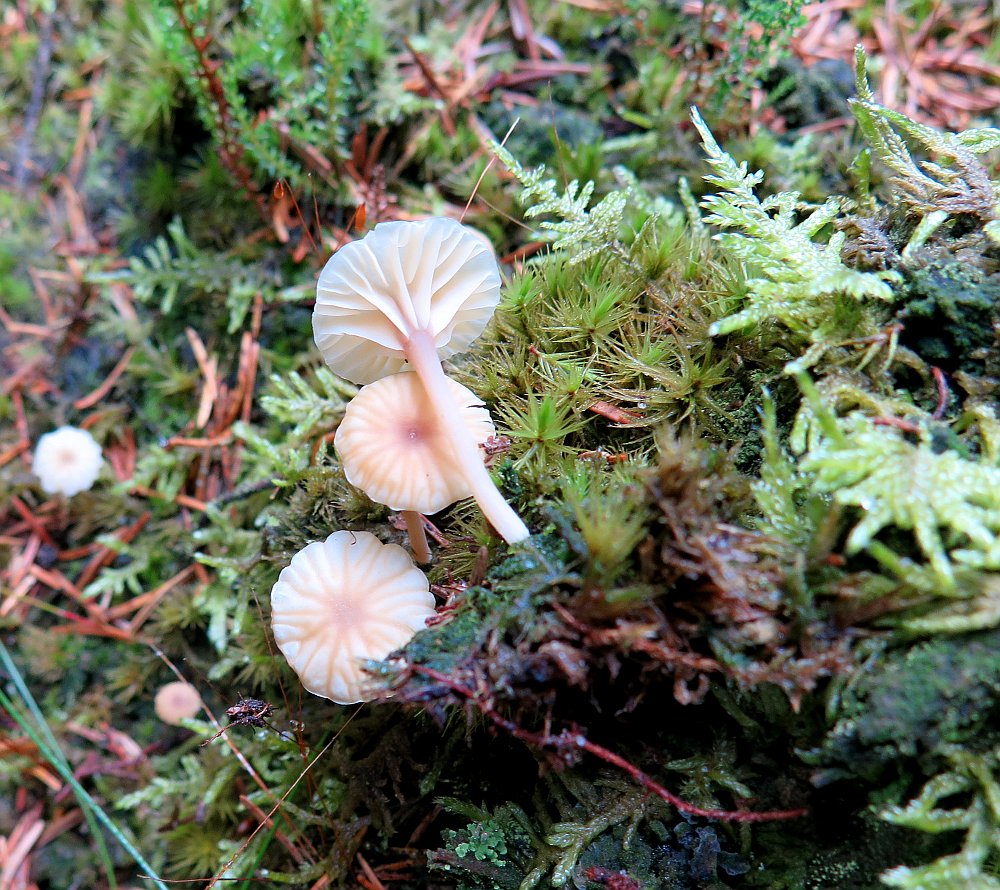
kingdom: Fungi
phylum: Basidiomycota
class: Agaricomycetes
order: Agaricales
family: Hygrophoraceae
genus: Lichenomphalia
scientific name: Lichenomphalia umbellifera
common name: tørve-lavhat
